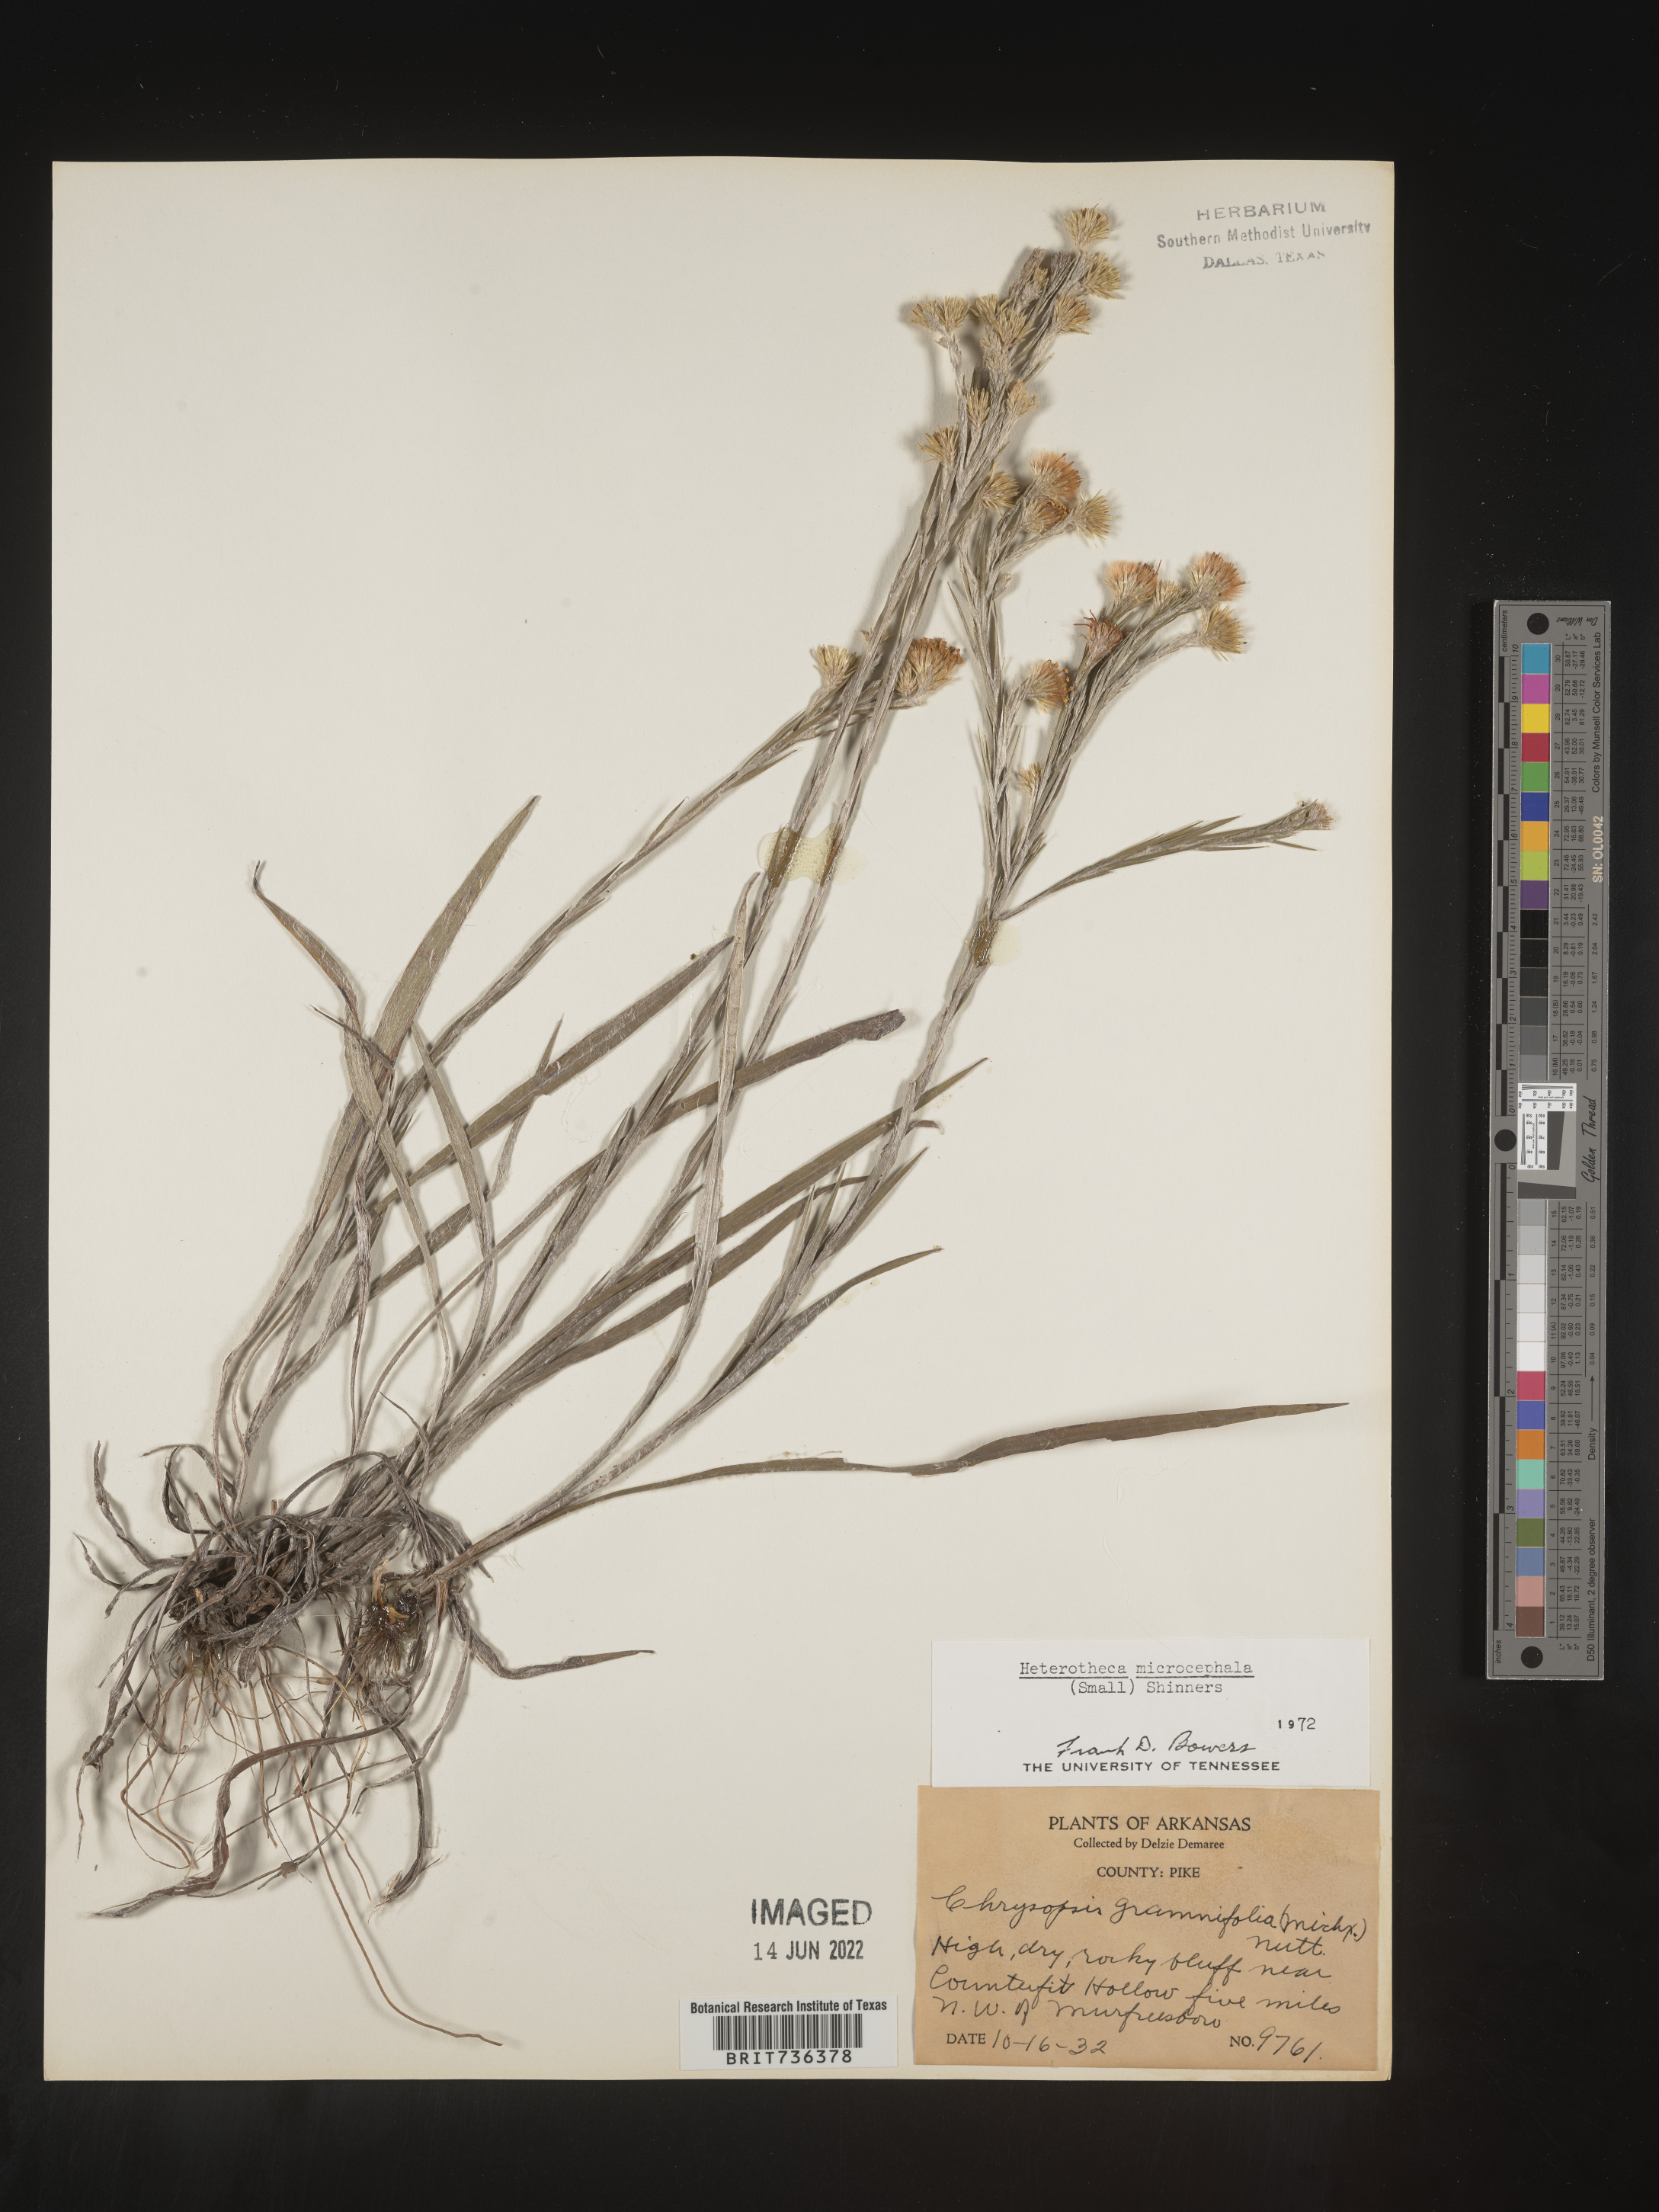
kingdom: Plantae
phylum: Tracheophyta
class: Magnoliopsida
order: Asterales
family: Asteraceae
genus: Pityopsis
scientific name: Pityopsis tenuifolia
